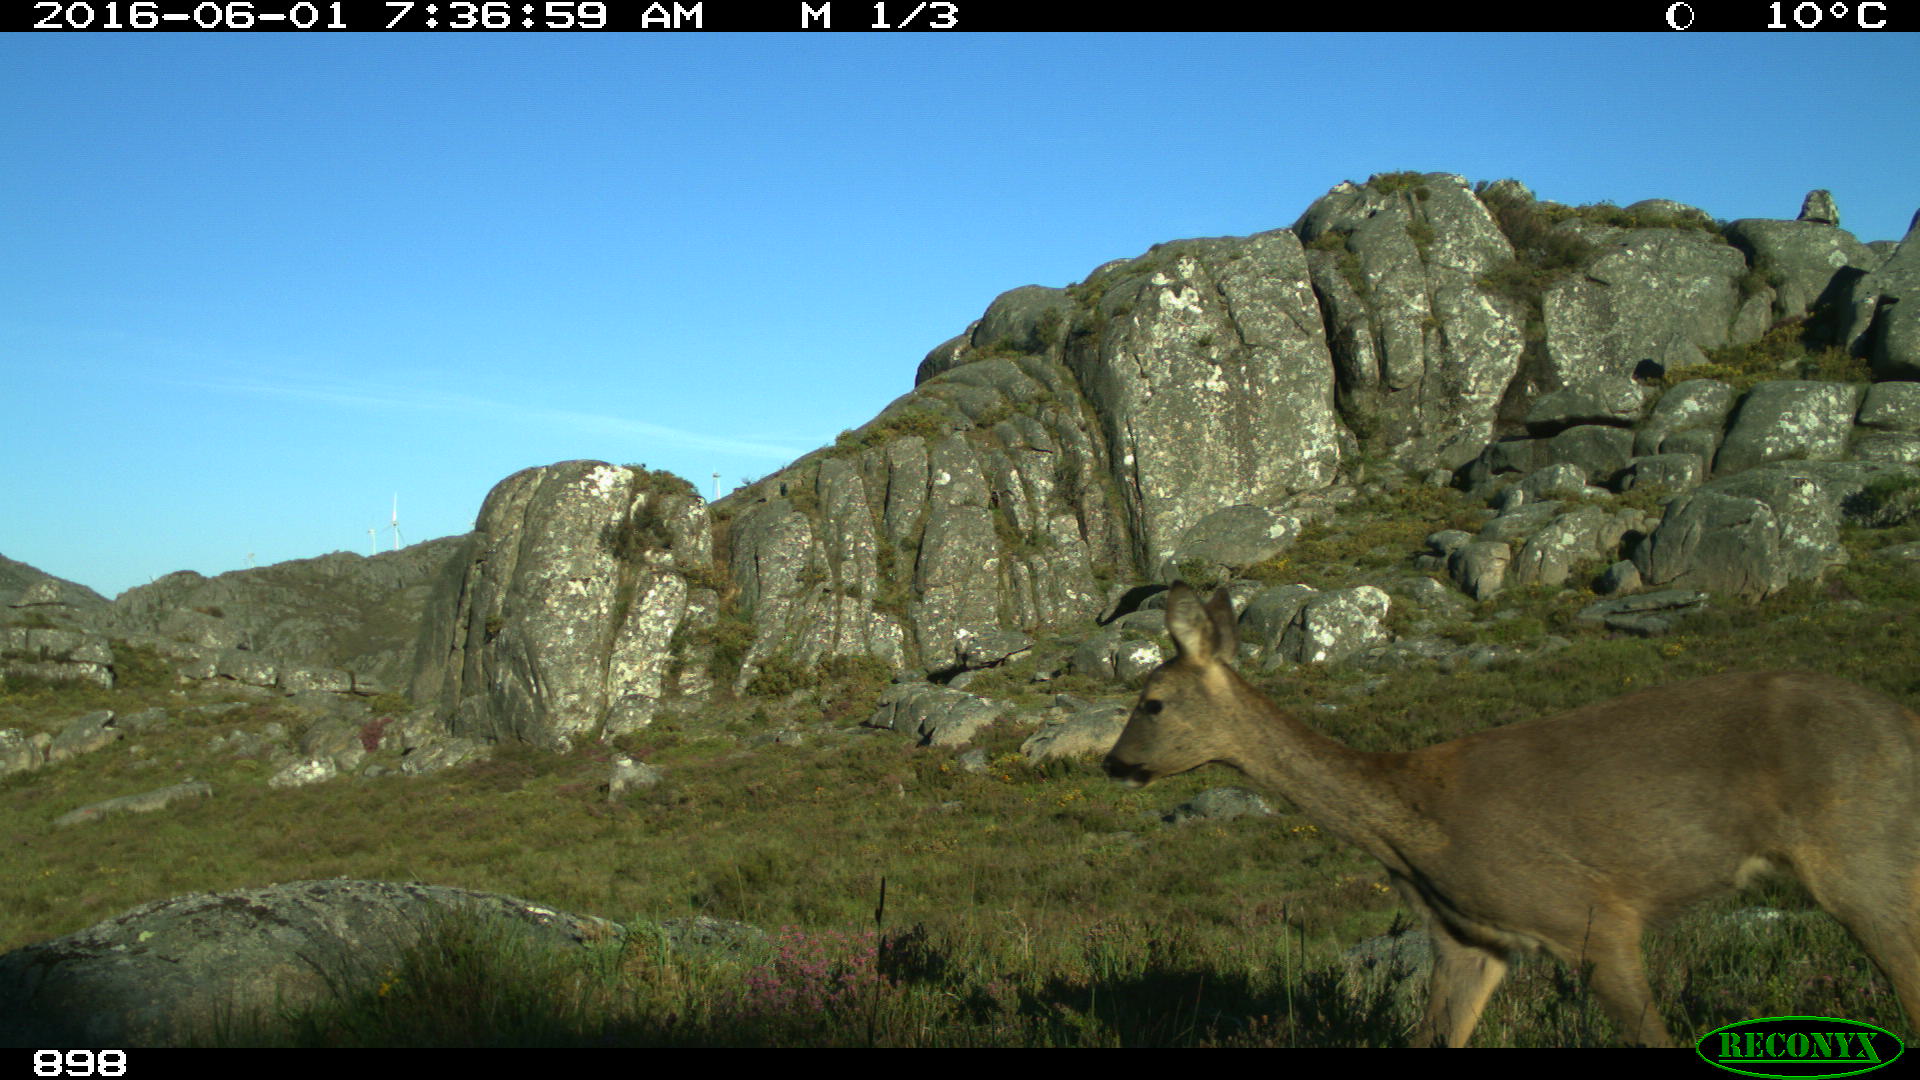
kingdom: Animalia
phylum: Chordata
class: Mammalia
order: Artiodactyla
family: Cervidae
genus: Capreolus
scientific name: Capreolus capreolus
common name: Western roe deer
